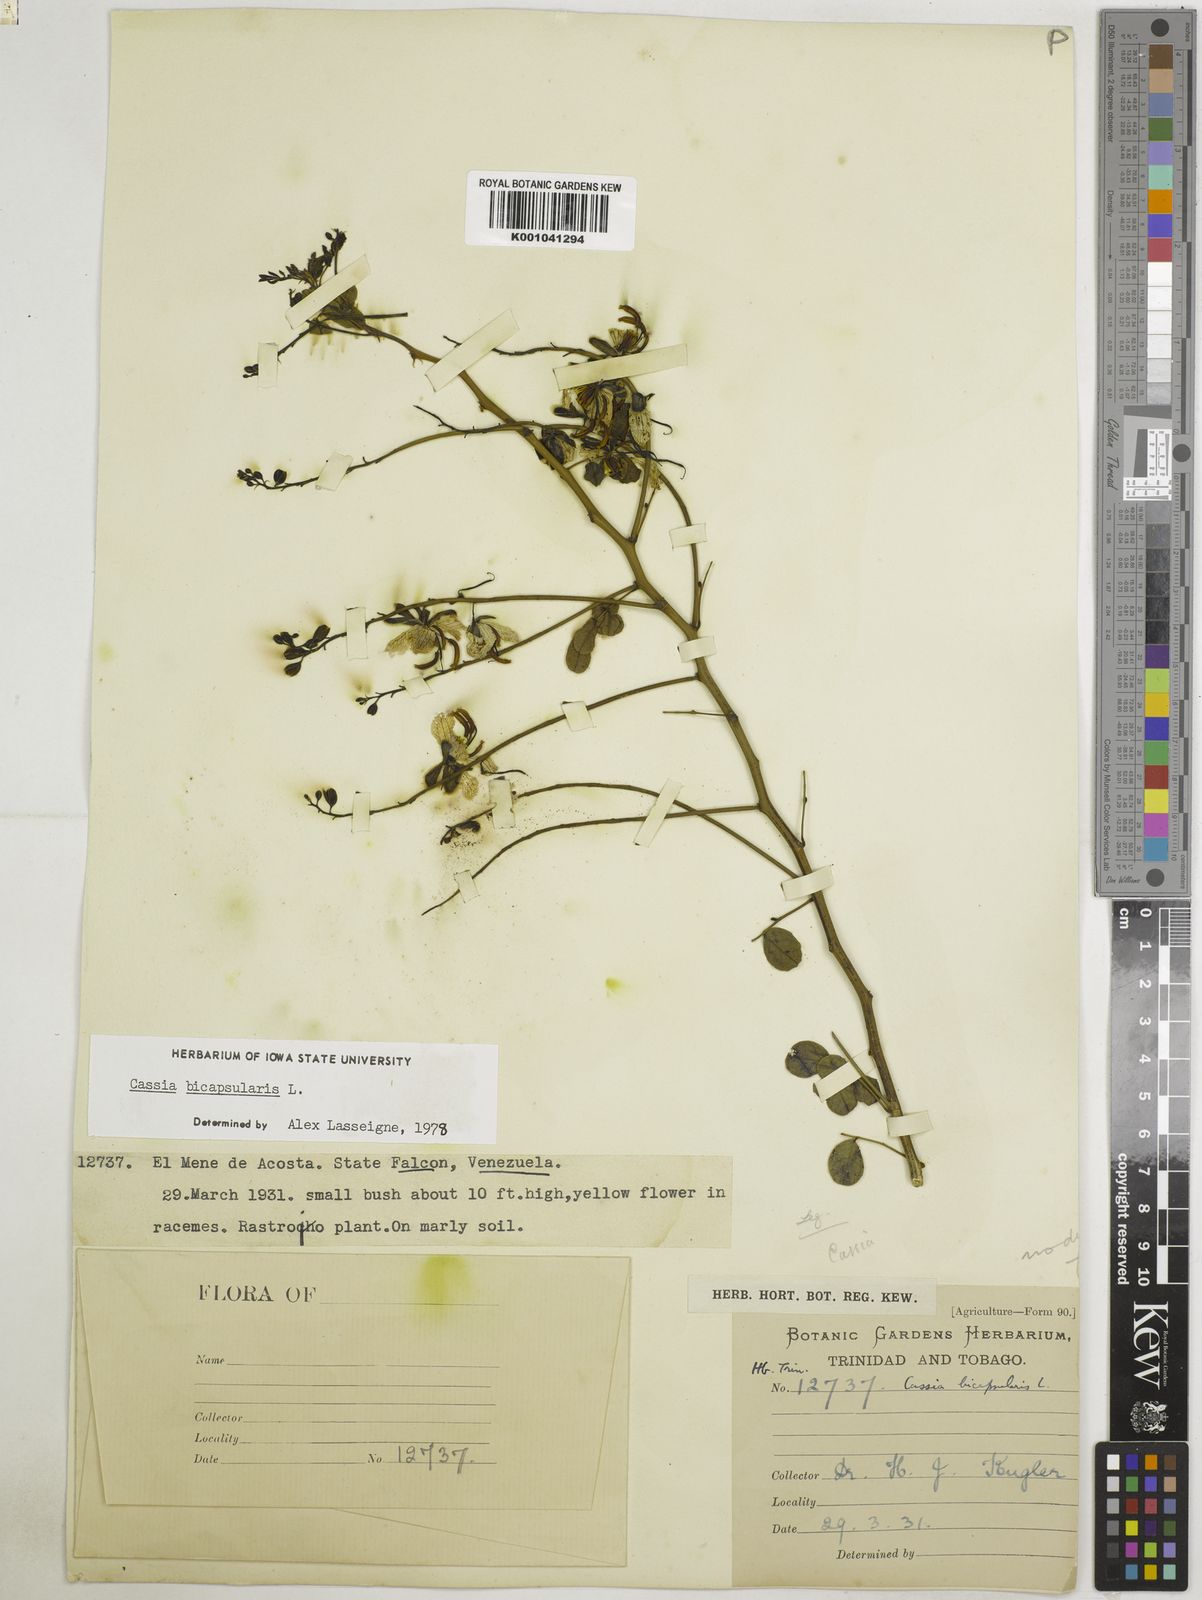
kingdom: Plantae
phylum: Tracheophyta
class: Magnoliopsida
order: Fabales
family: Fabaceae
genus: Senna
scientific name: Senna bicapsularis
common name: Christmasbush
